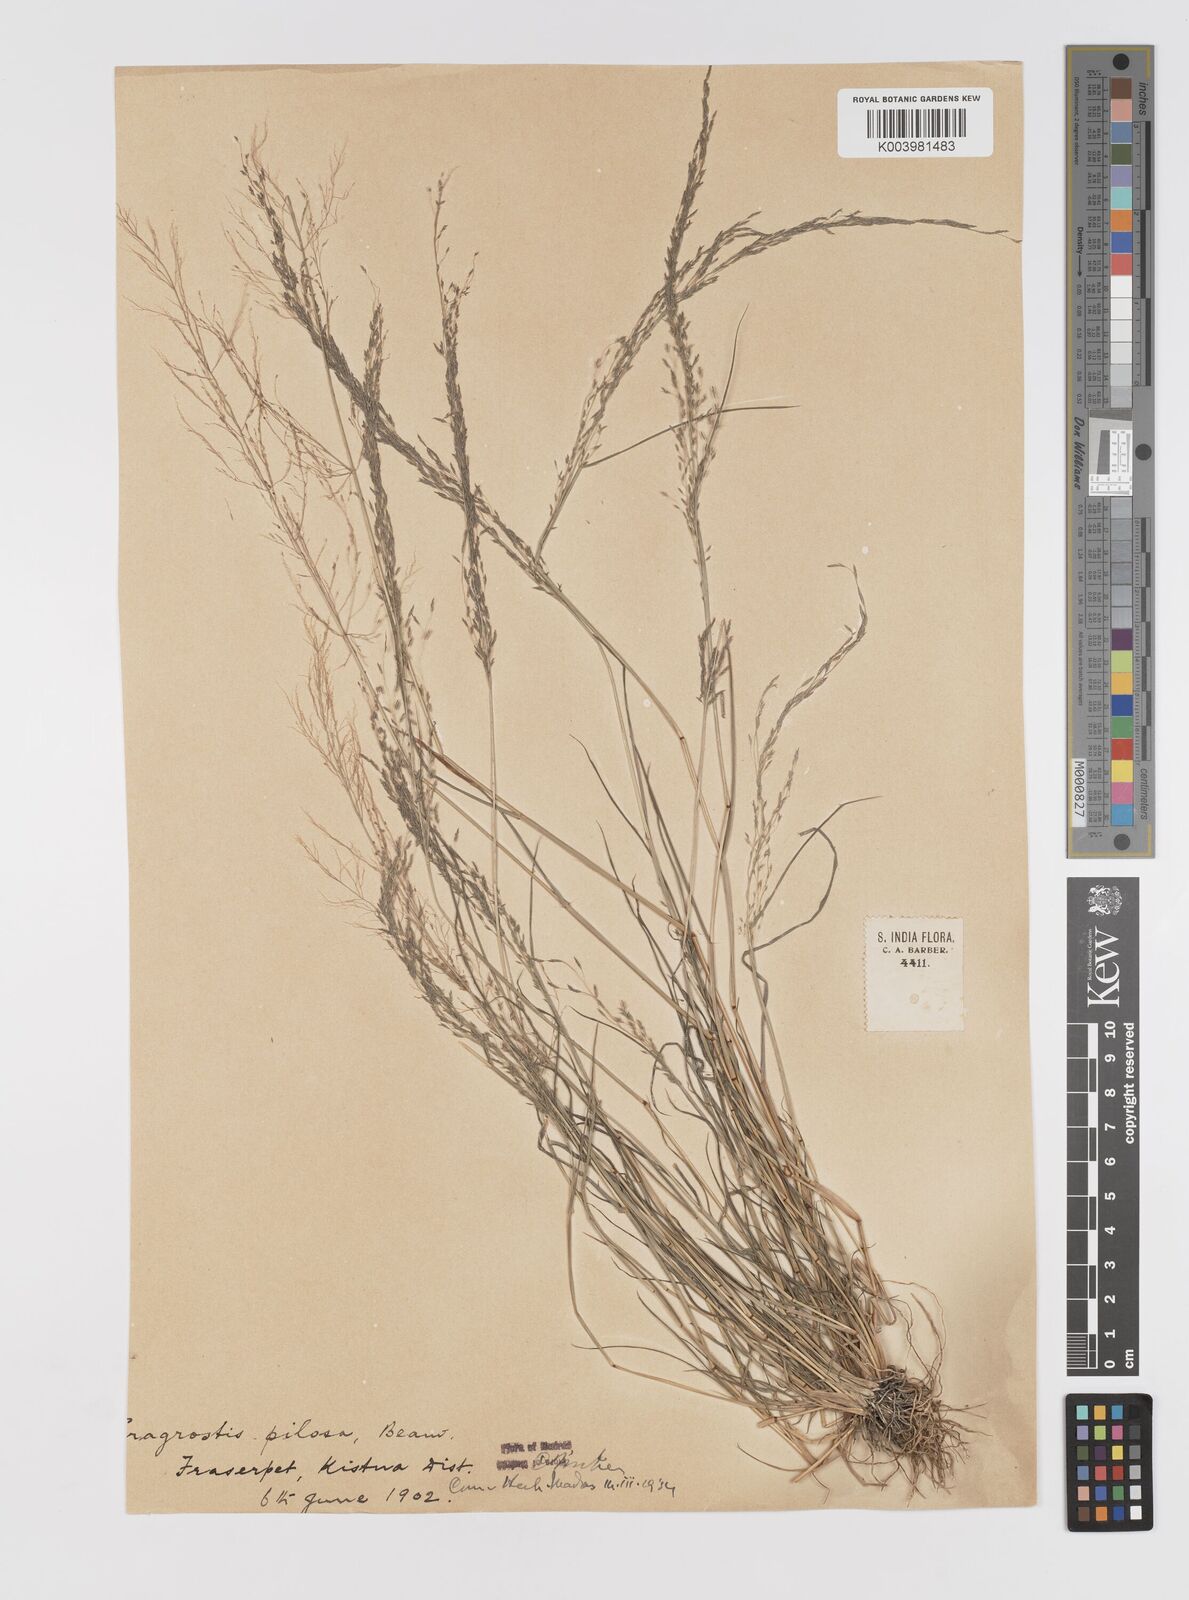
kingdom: Plantae
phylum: Tracheophyta
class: Liliopsida
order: Poales
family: Poaceae
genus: Eragrostis
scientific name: Eragrostis pilosa
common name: Indian lovegrass
